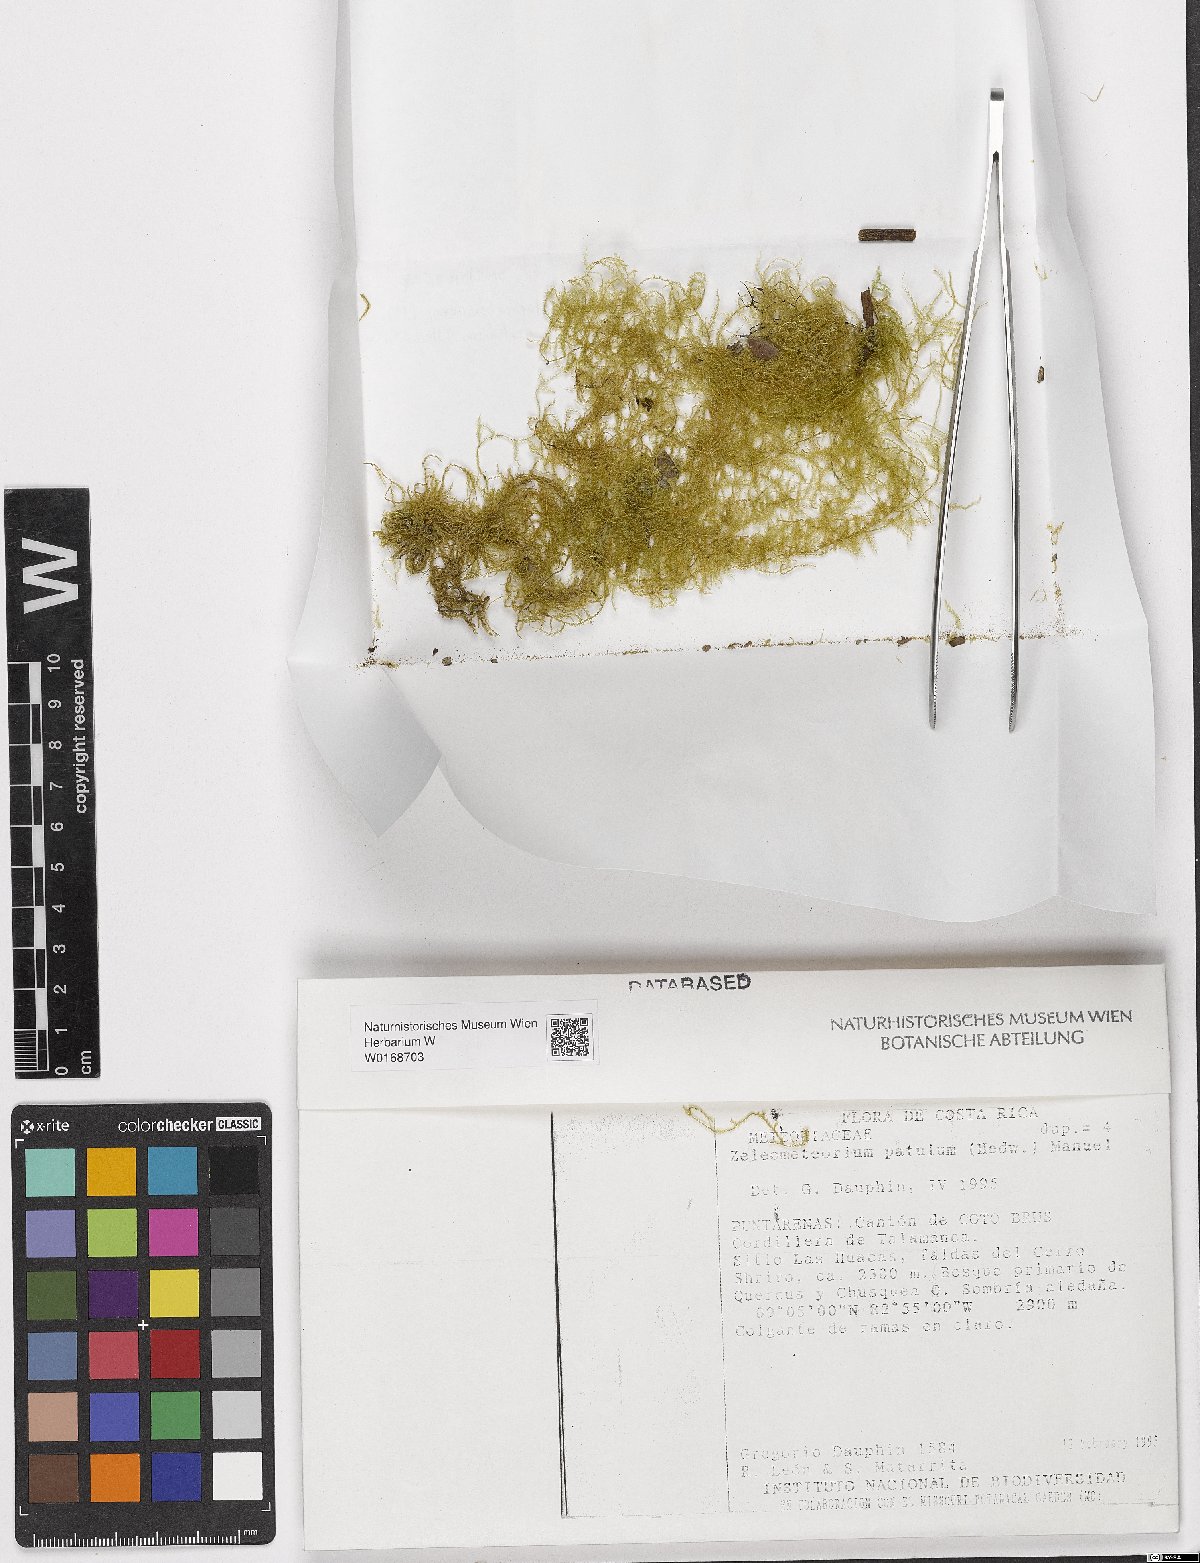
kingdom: Plantae
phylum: Bryophyta
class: Bryopsida
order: Hypnales
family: Brachytheciaceae
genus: Zelometeorium
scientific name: Zelometeorium patulum
